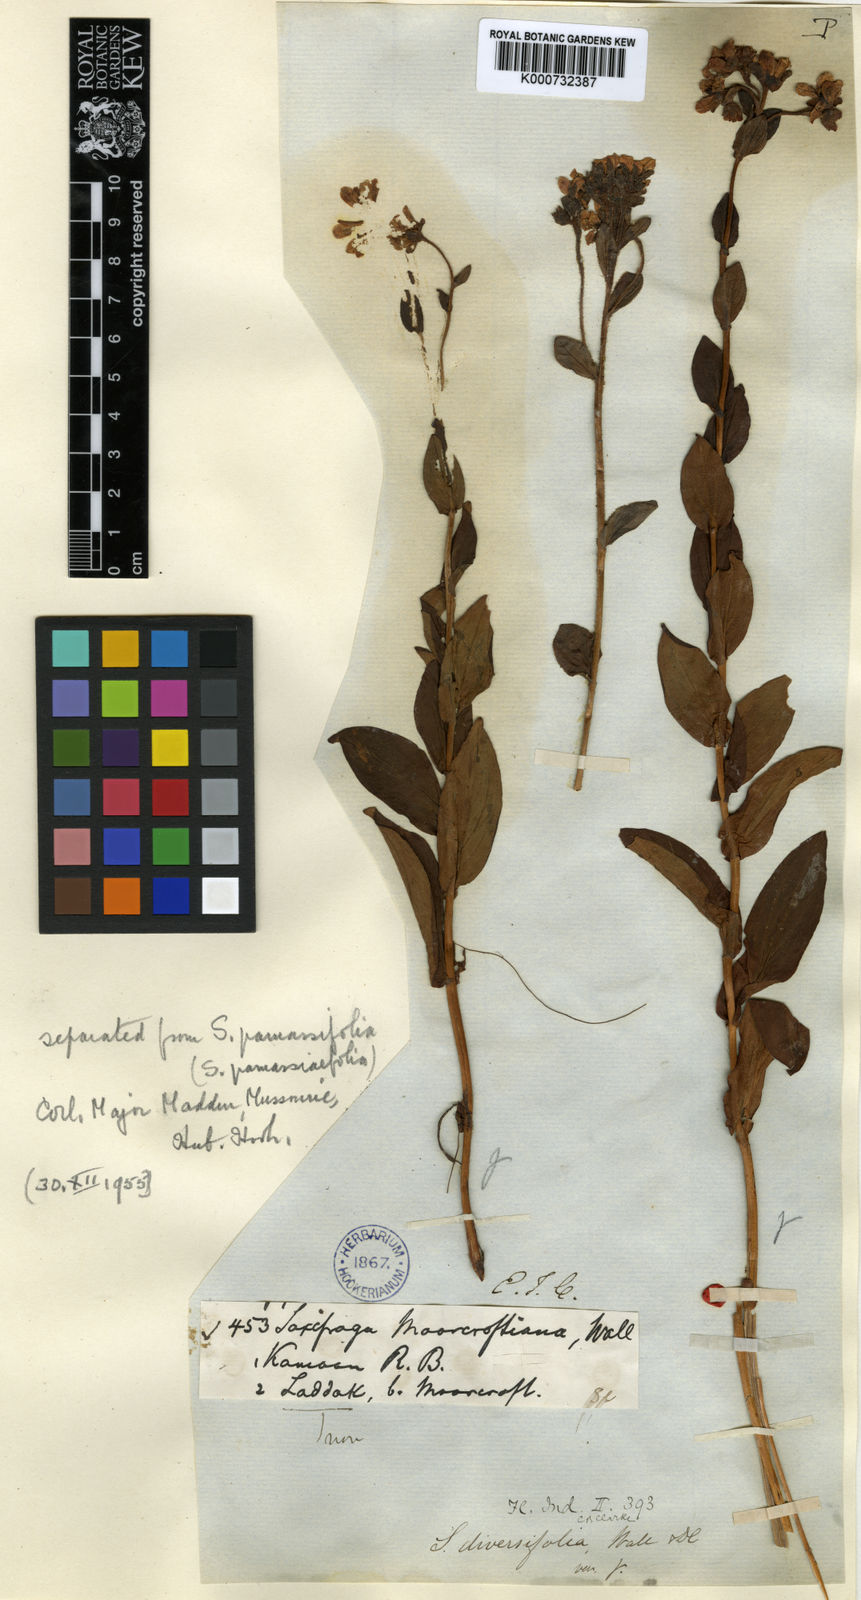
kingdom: Plantae
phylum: Tracheophyta
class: Magnoliopsida
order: Saxifragales
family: Saxifragaceae
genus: Saxifraga
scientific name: Saxifraga moorcroftiana
